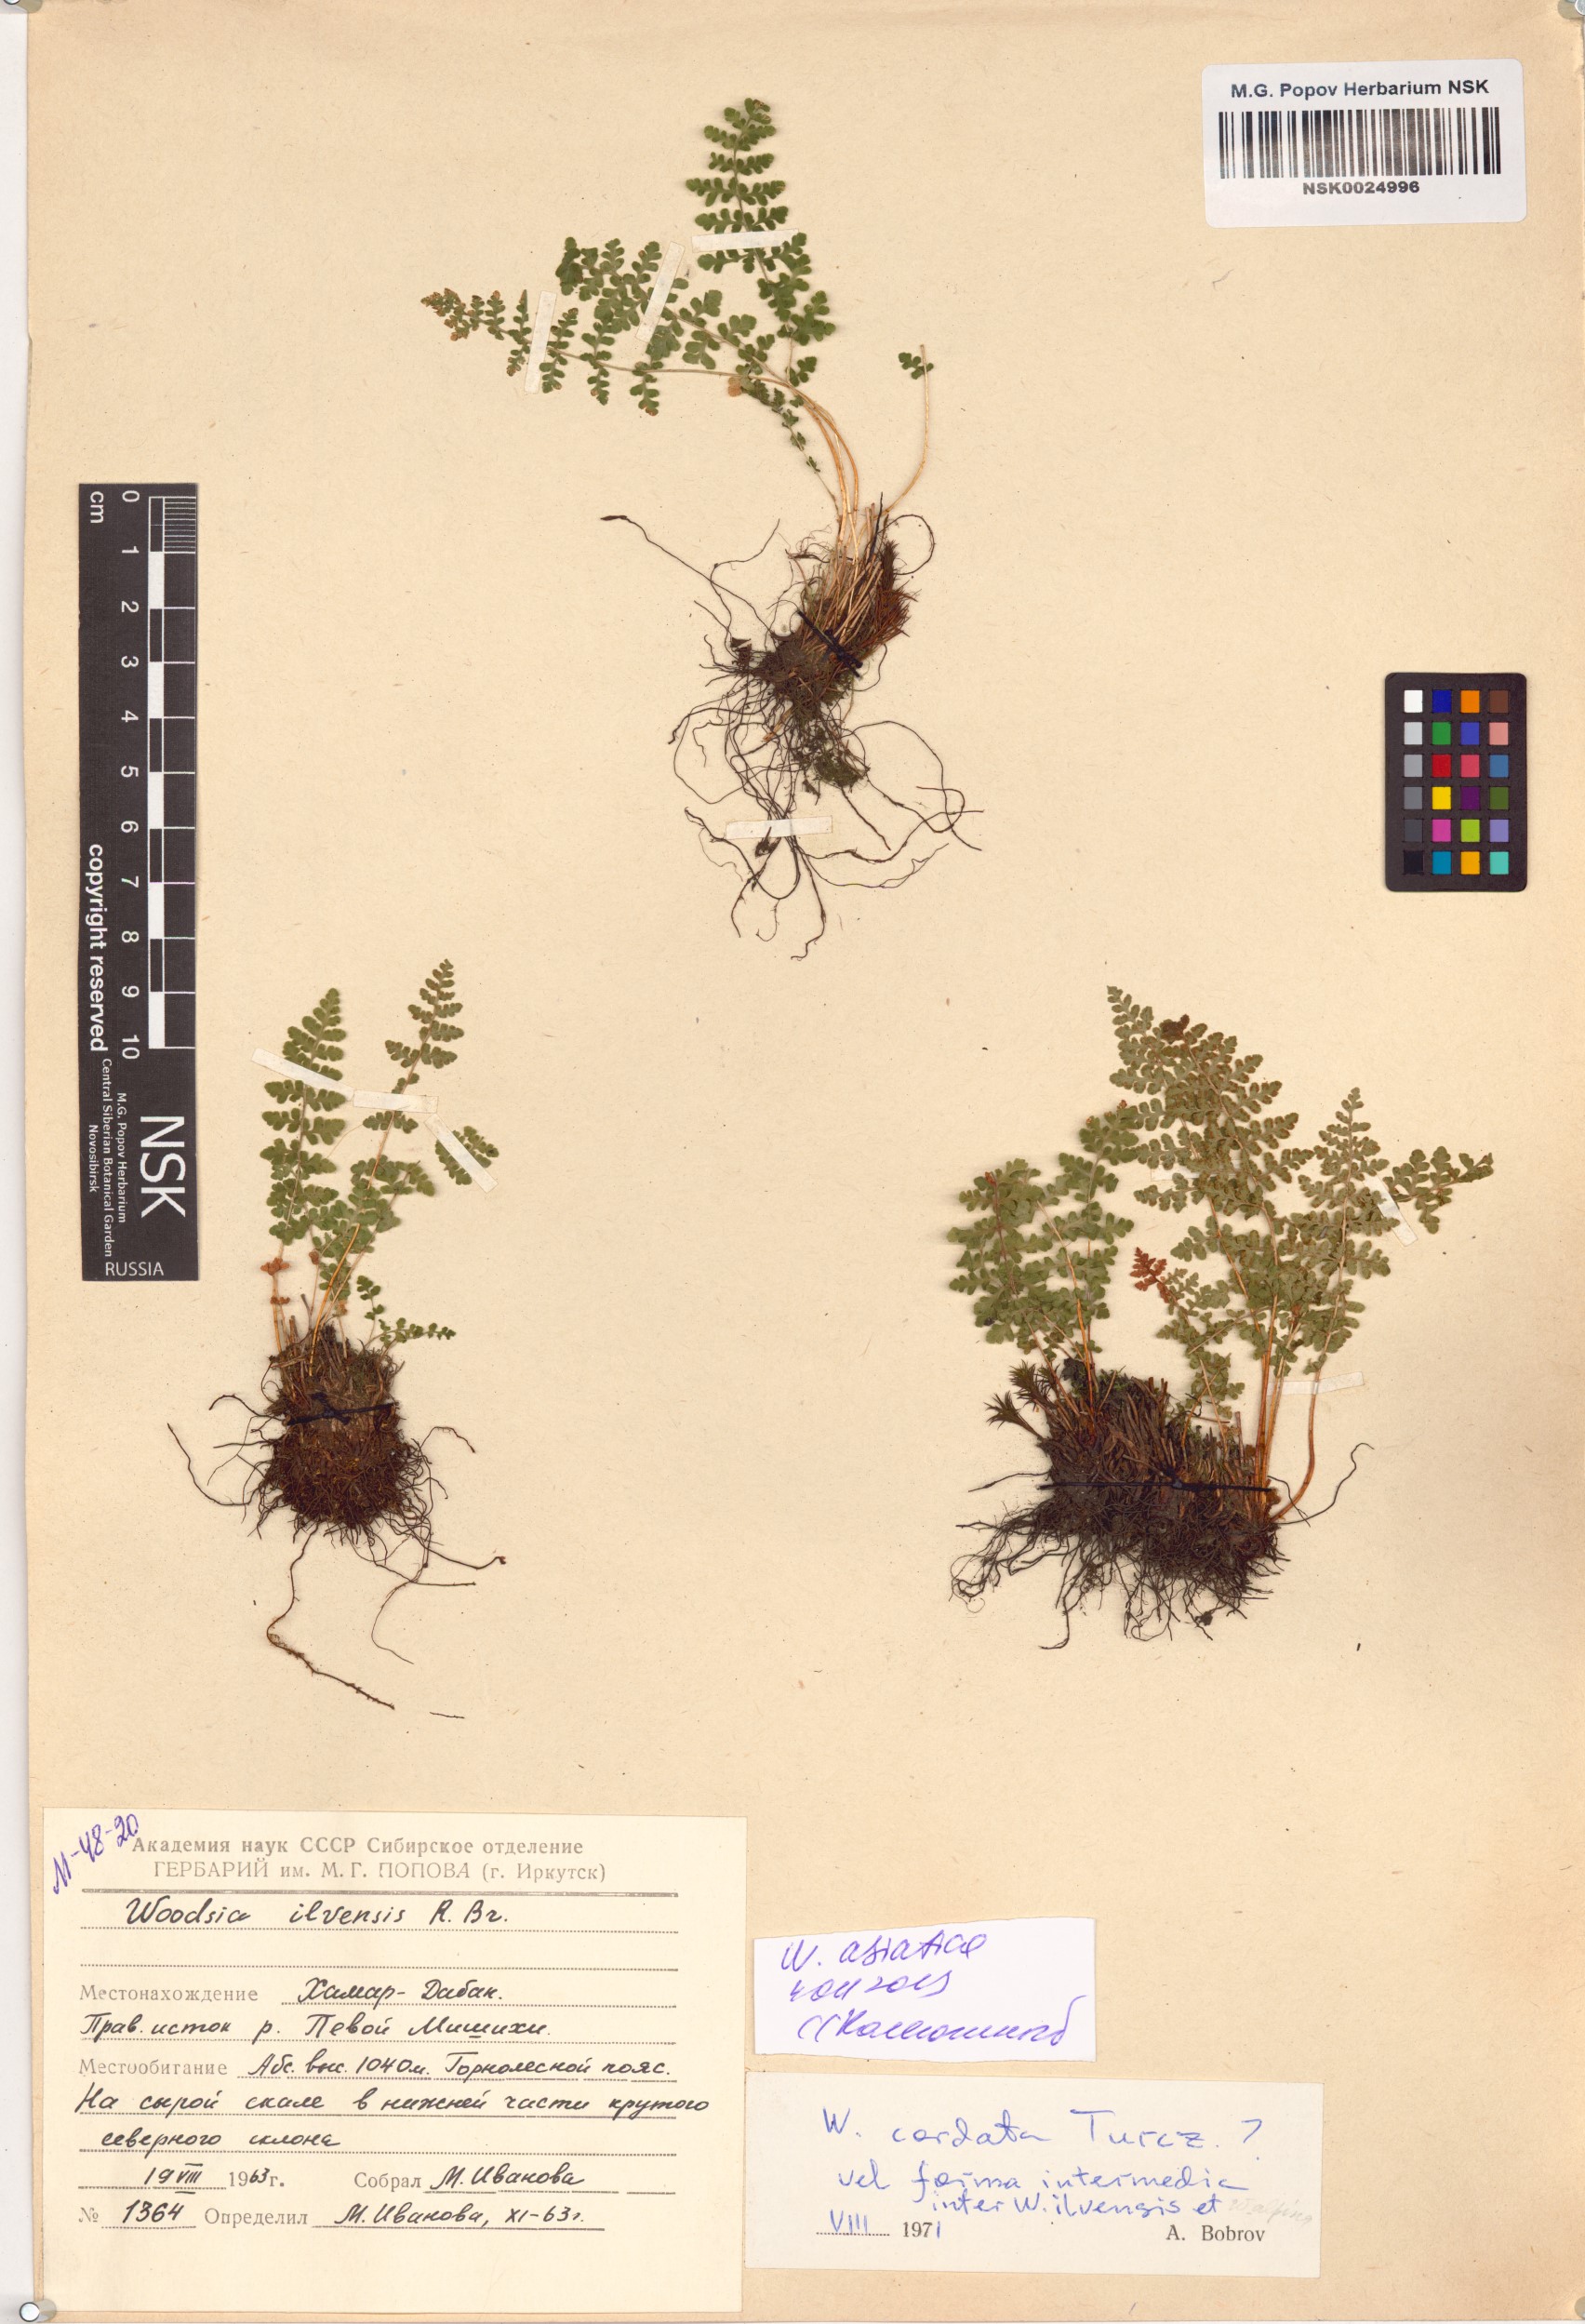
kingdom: Plantae
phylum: Tracheophyta
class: Polypodiopsida
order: Polypodiales
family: Woodsiaceae
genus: Woodsia
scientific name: Woodsia asiatica
